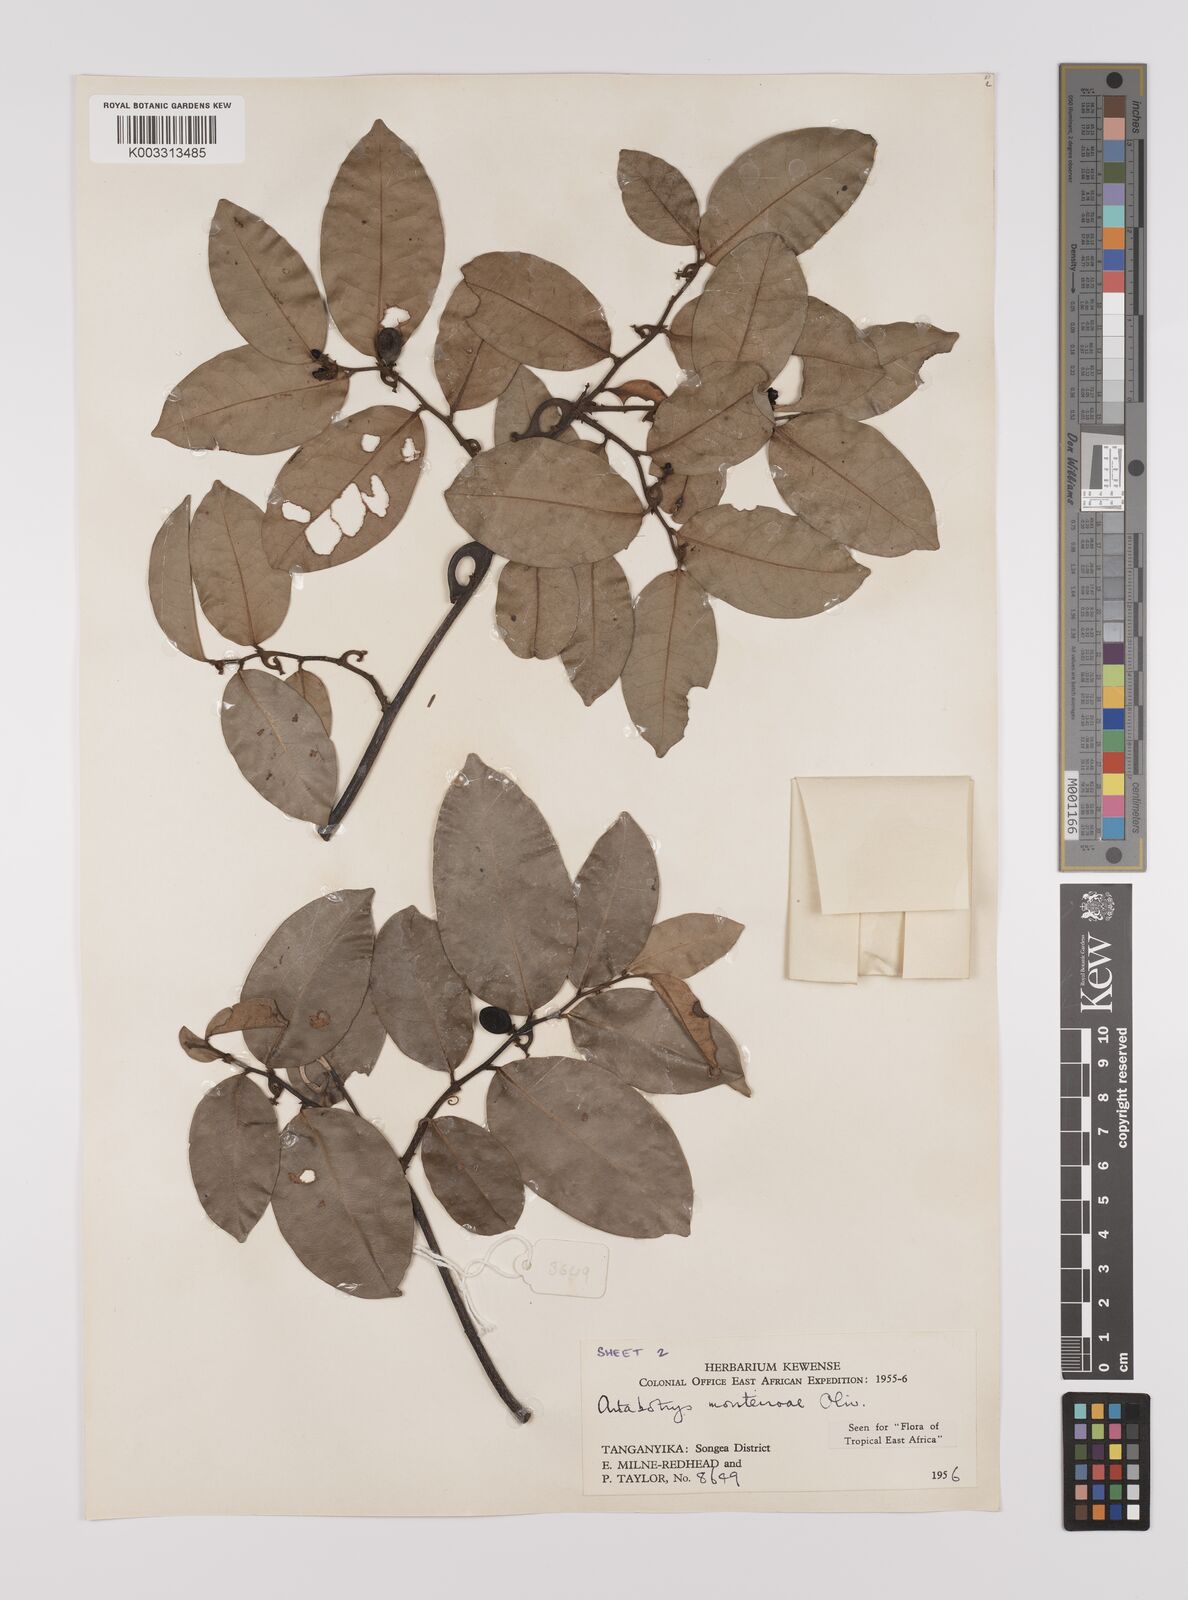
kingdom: Plantae
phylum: Tracheophyta
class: Magnoliopsida
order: Magnoliales
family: Annonaceae
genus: Artabotrys
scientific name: Artabotrys monteiroae
